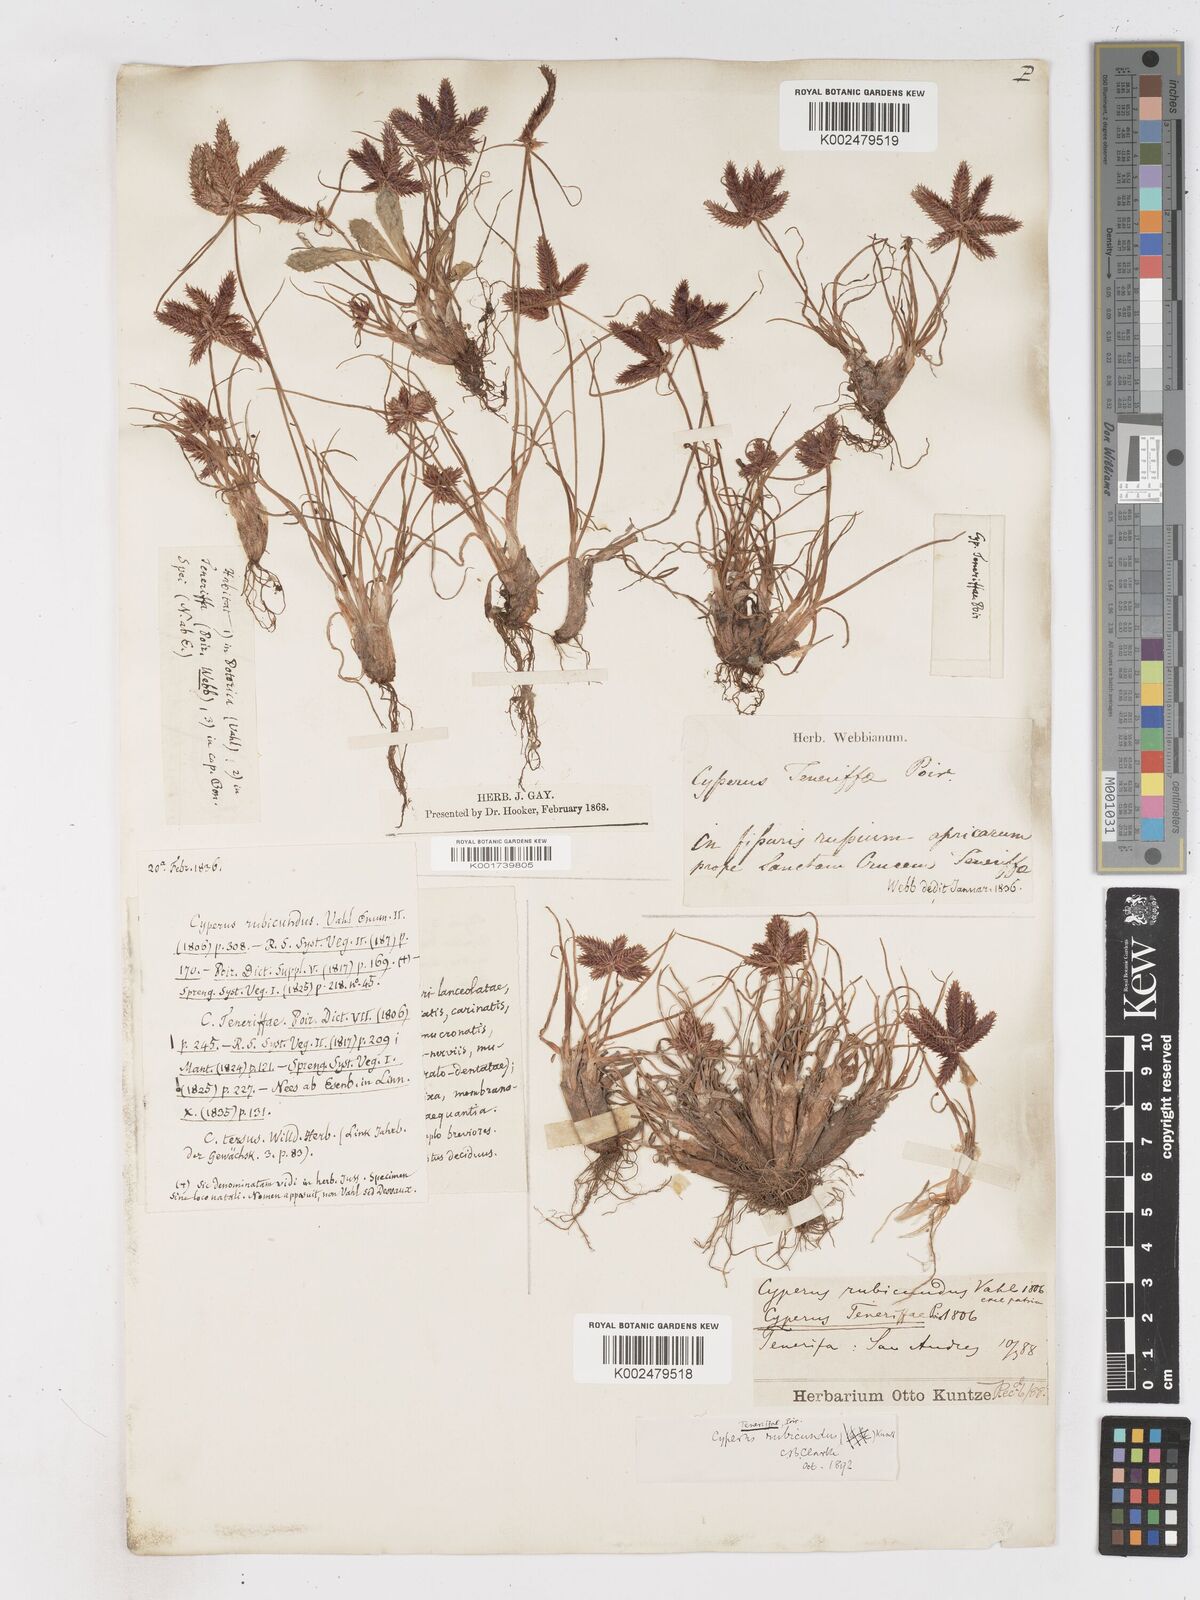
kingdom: Plantae
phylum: Tracheophyta
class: Liliopsida
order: Poales
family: Cyperaceae
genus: Cyperus
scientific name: Cyperus rubicundus
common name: Coco-grass
